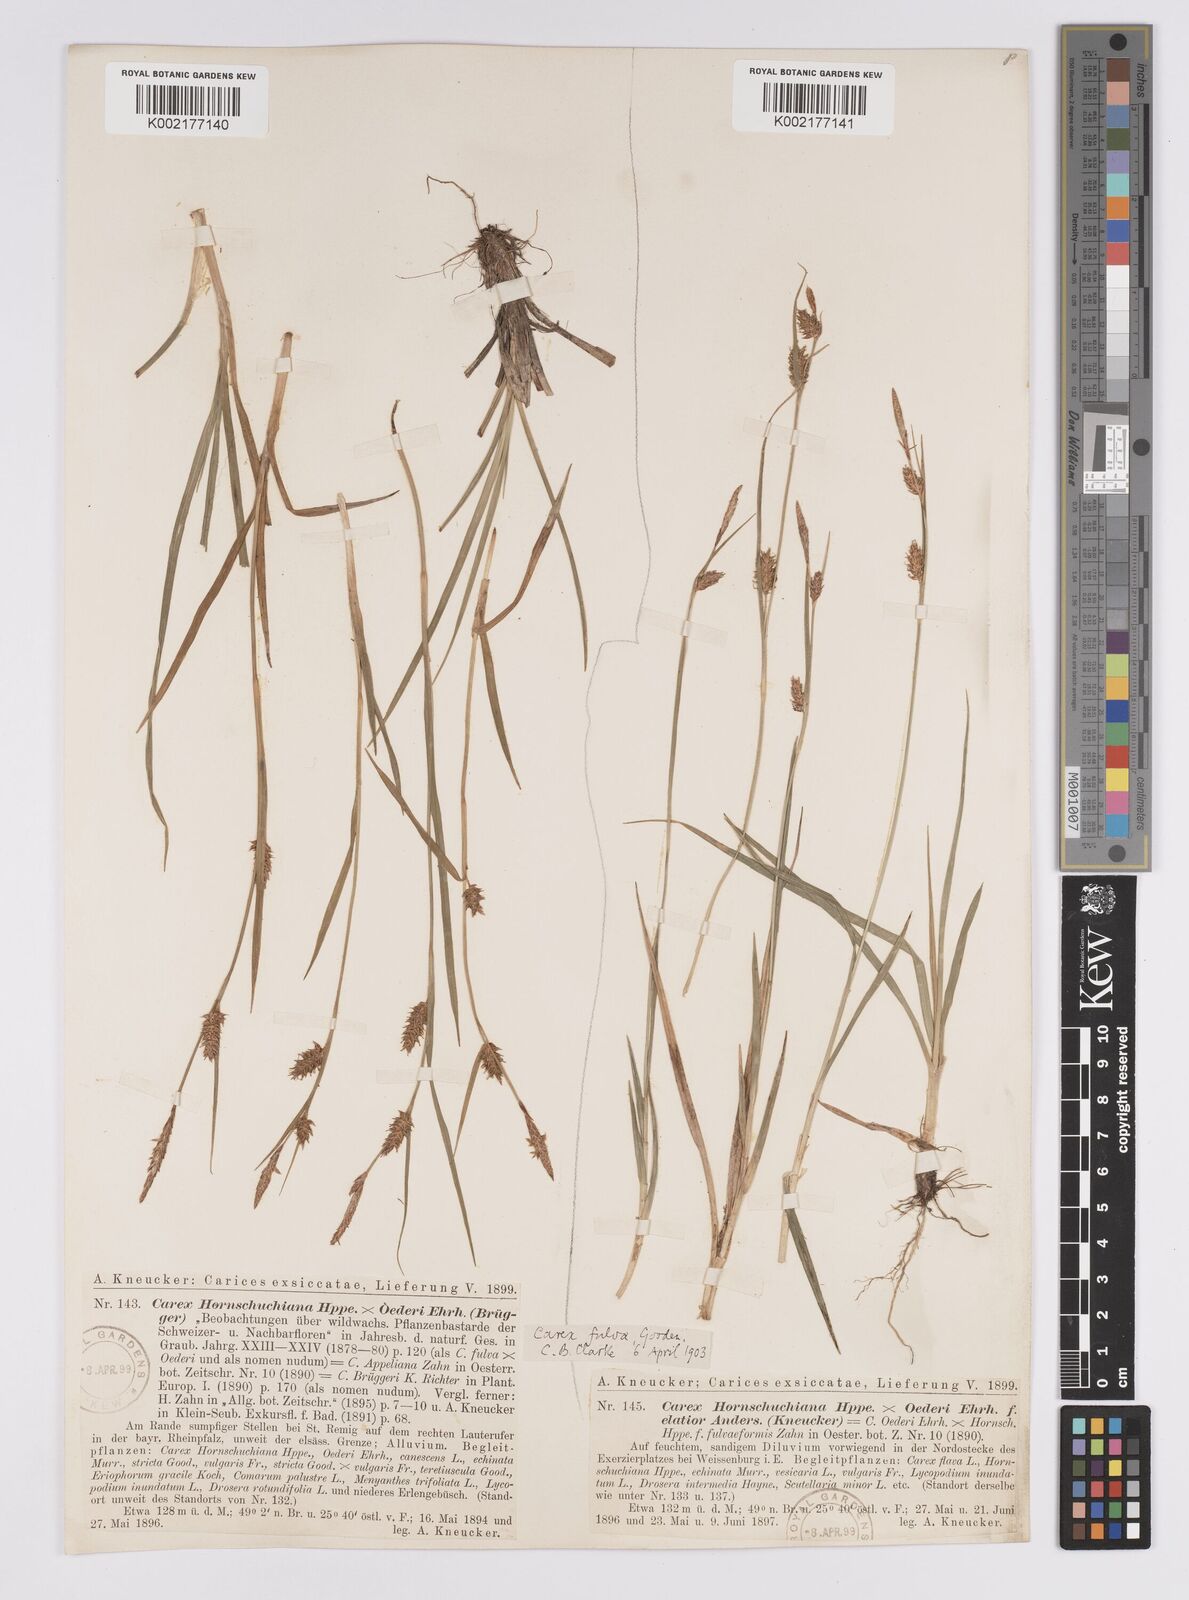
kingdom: Plantae
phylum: Tracheophyta
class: Liliopsida
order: Poales
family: Cyperaceae
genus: Carex
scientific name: Carex hostiana
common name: Tawny sedge
